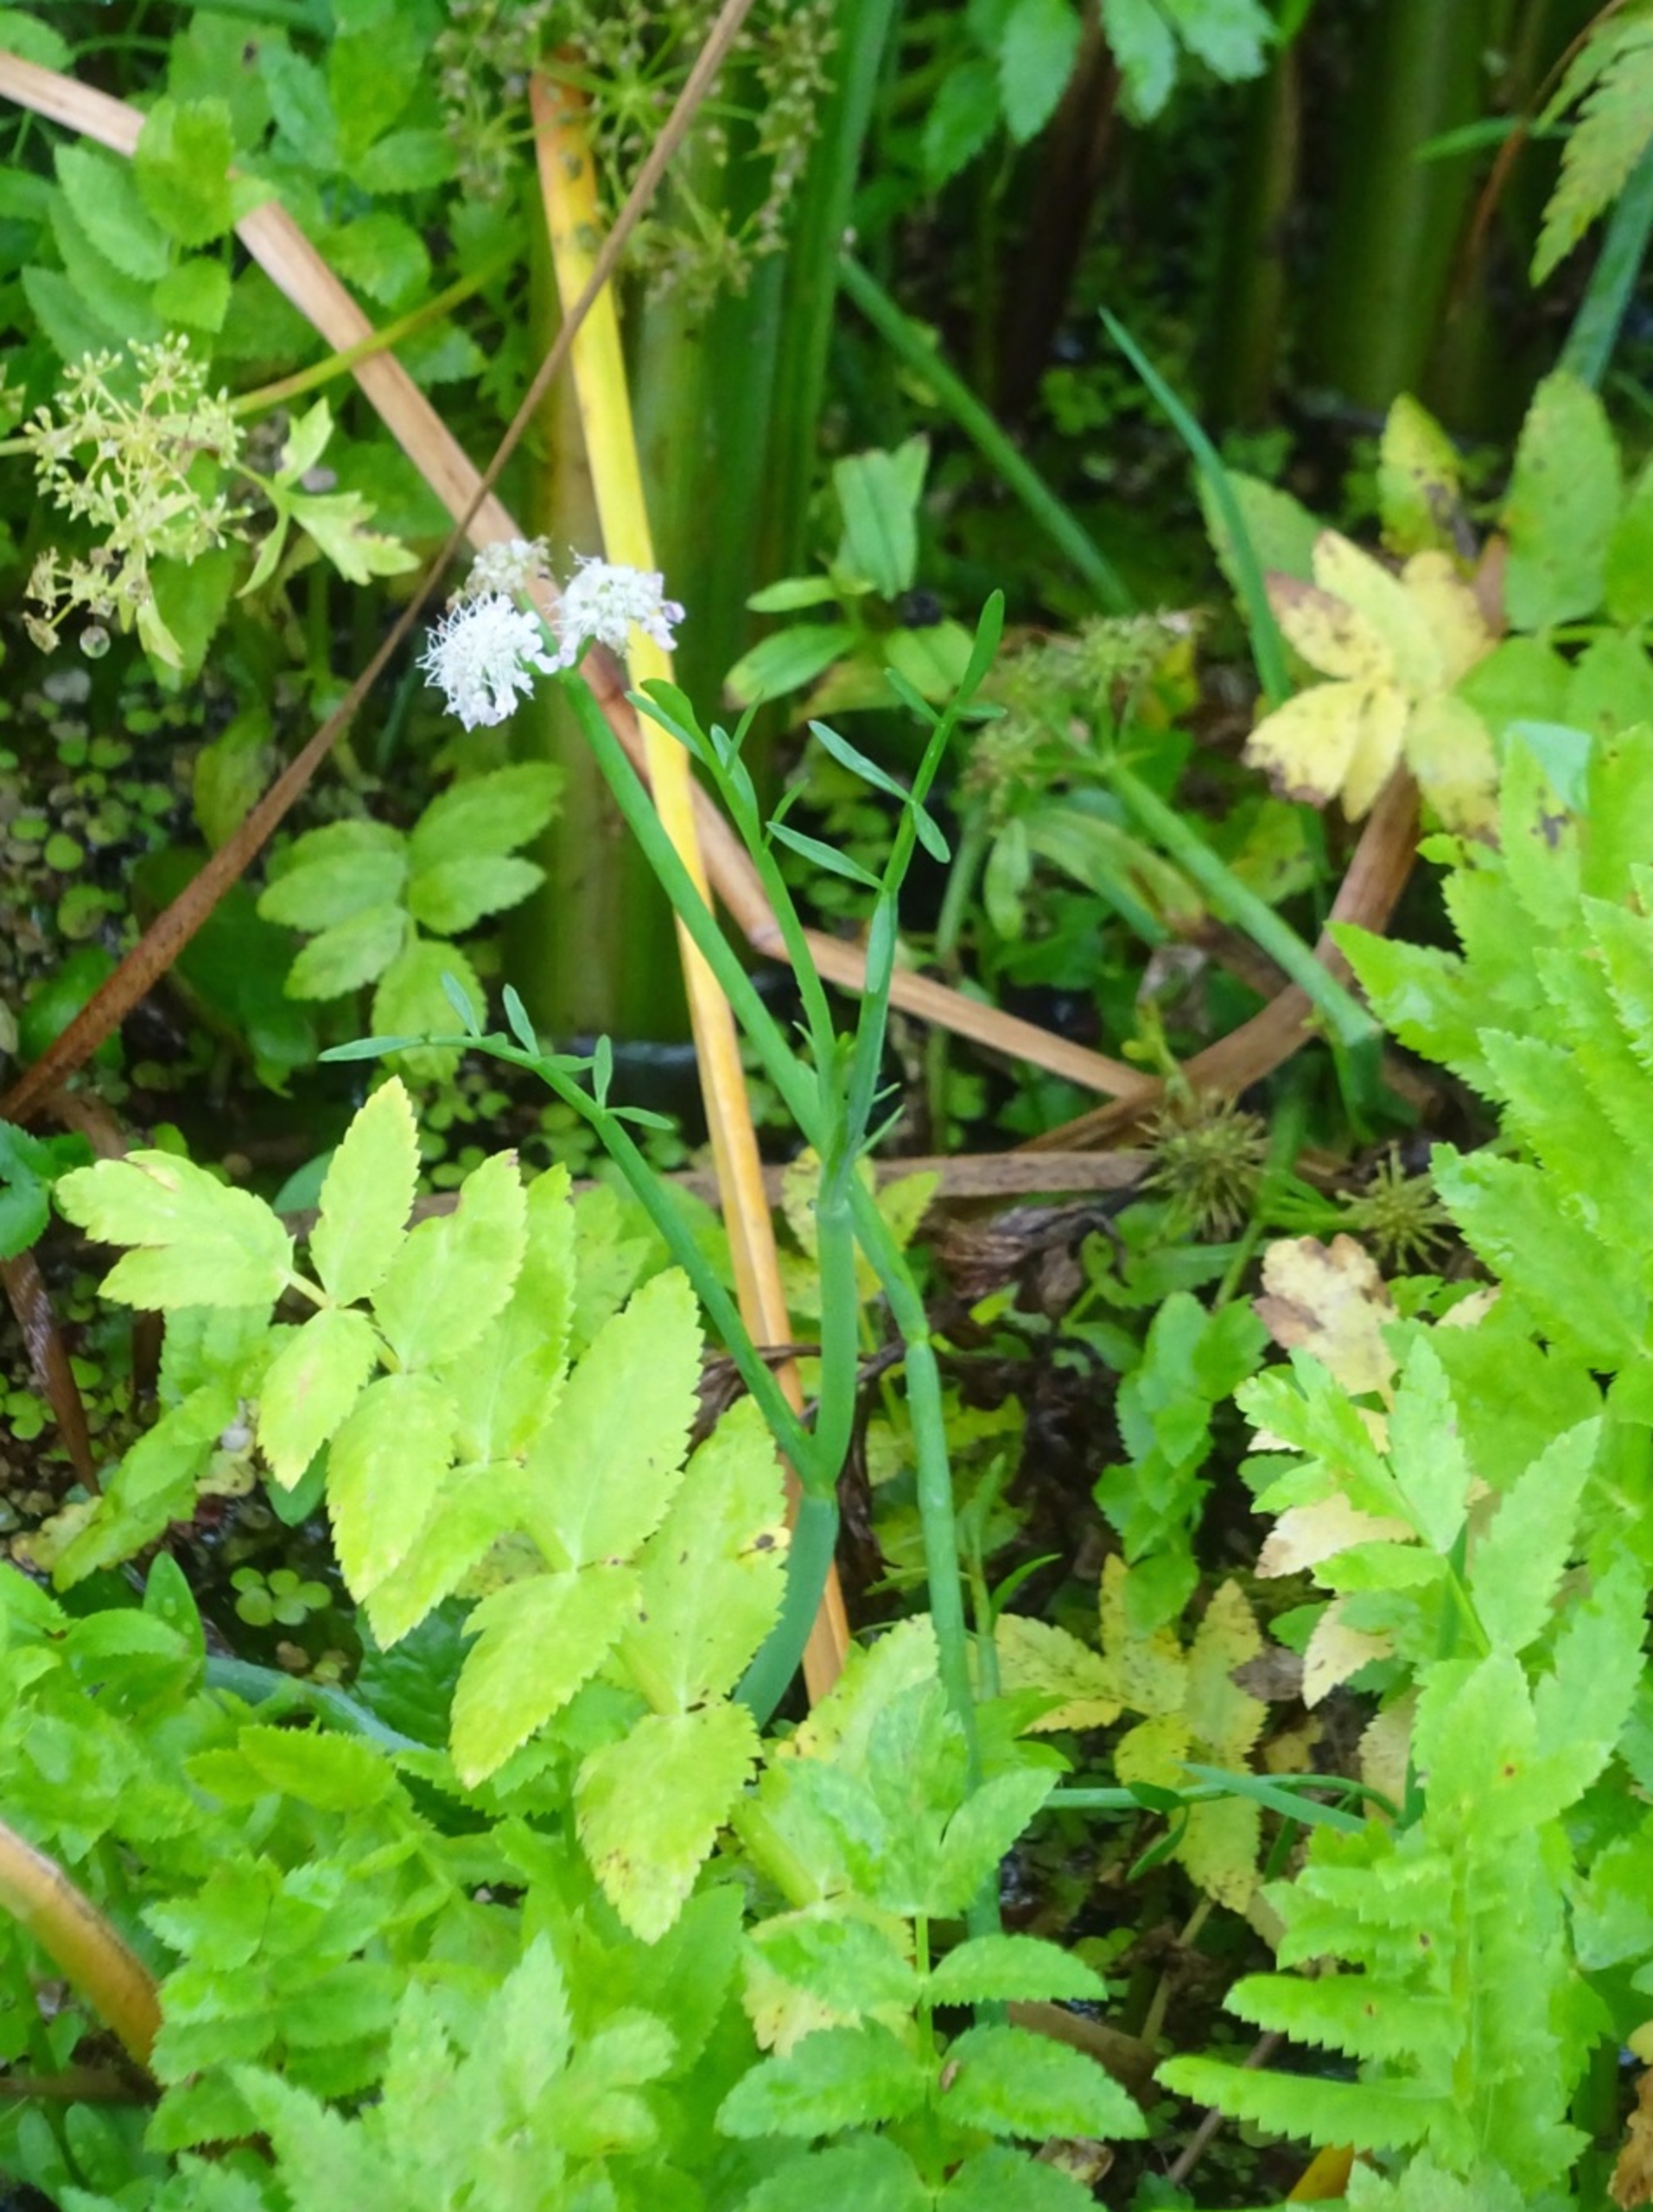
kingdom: Plantae
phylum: Tracheophyta
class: Magnoliopsida
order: Apiales
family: Apiaceae
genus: Oenanthe
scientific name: Oenanthe fistulosa
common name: Vand-klaseskærm
